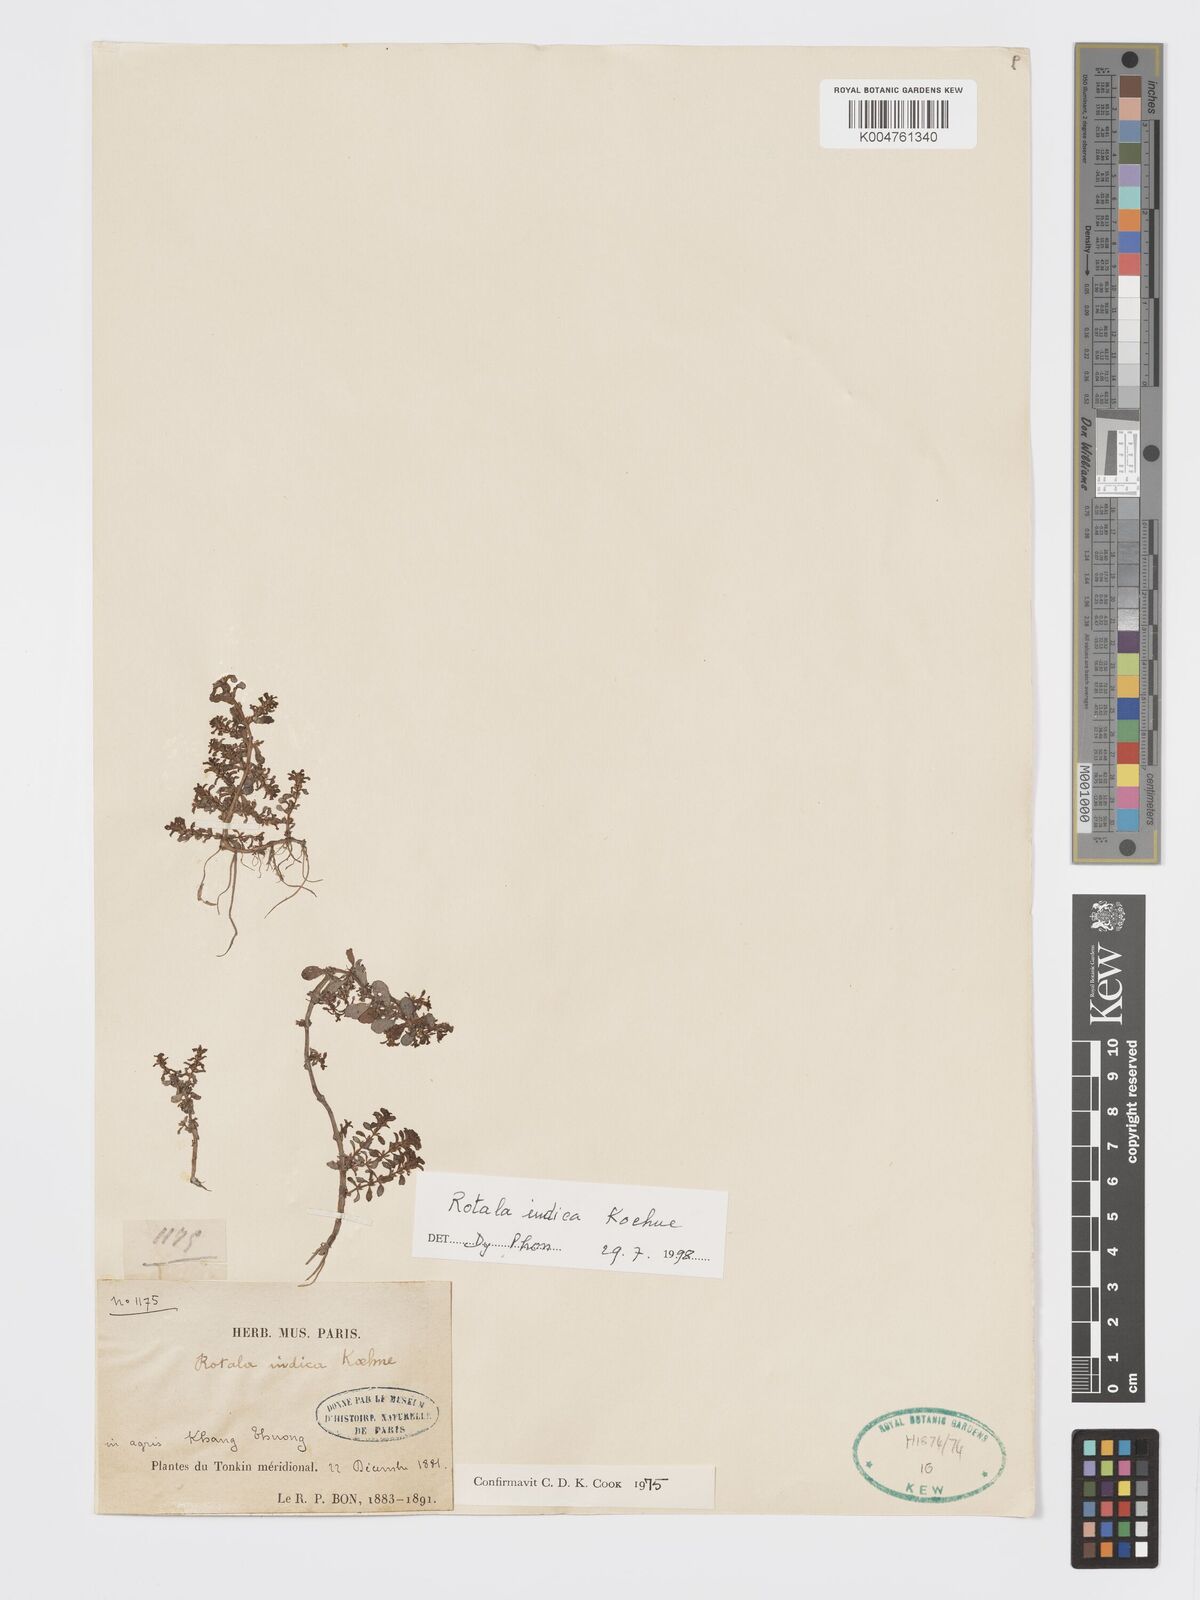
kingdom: Plantae
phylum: Tracheophyta
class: Magnoliopsida
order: Myrtales
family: Lythraceae
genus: Rotala
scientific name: Rotala indica
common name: Indian toothcup
